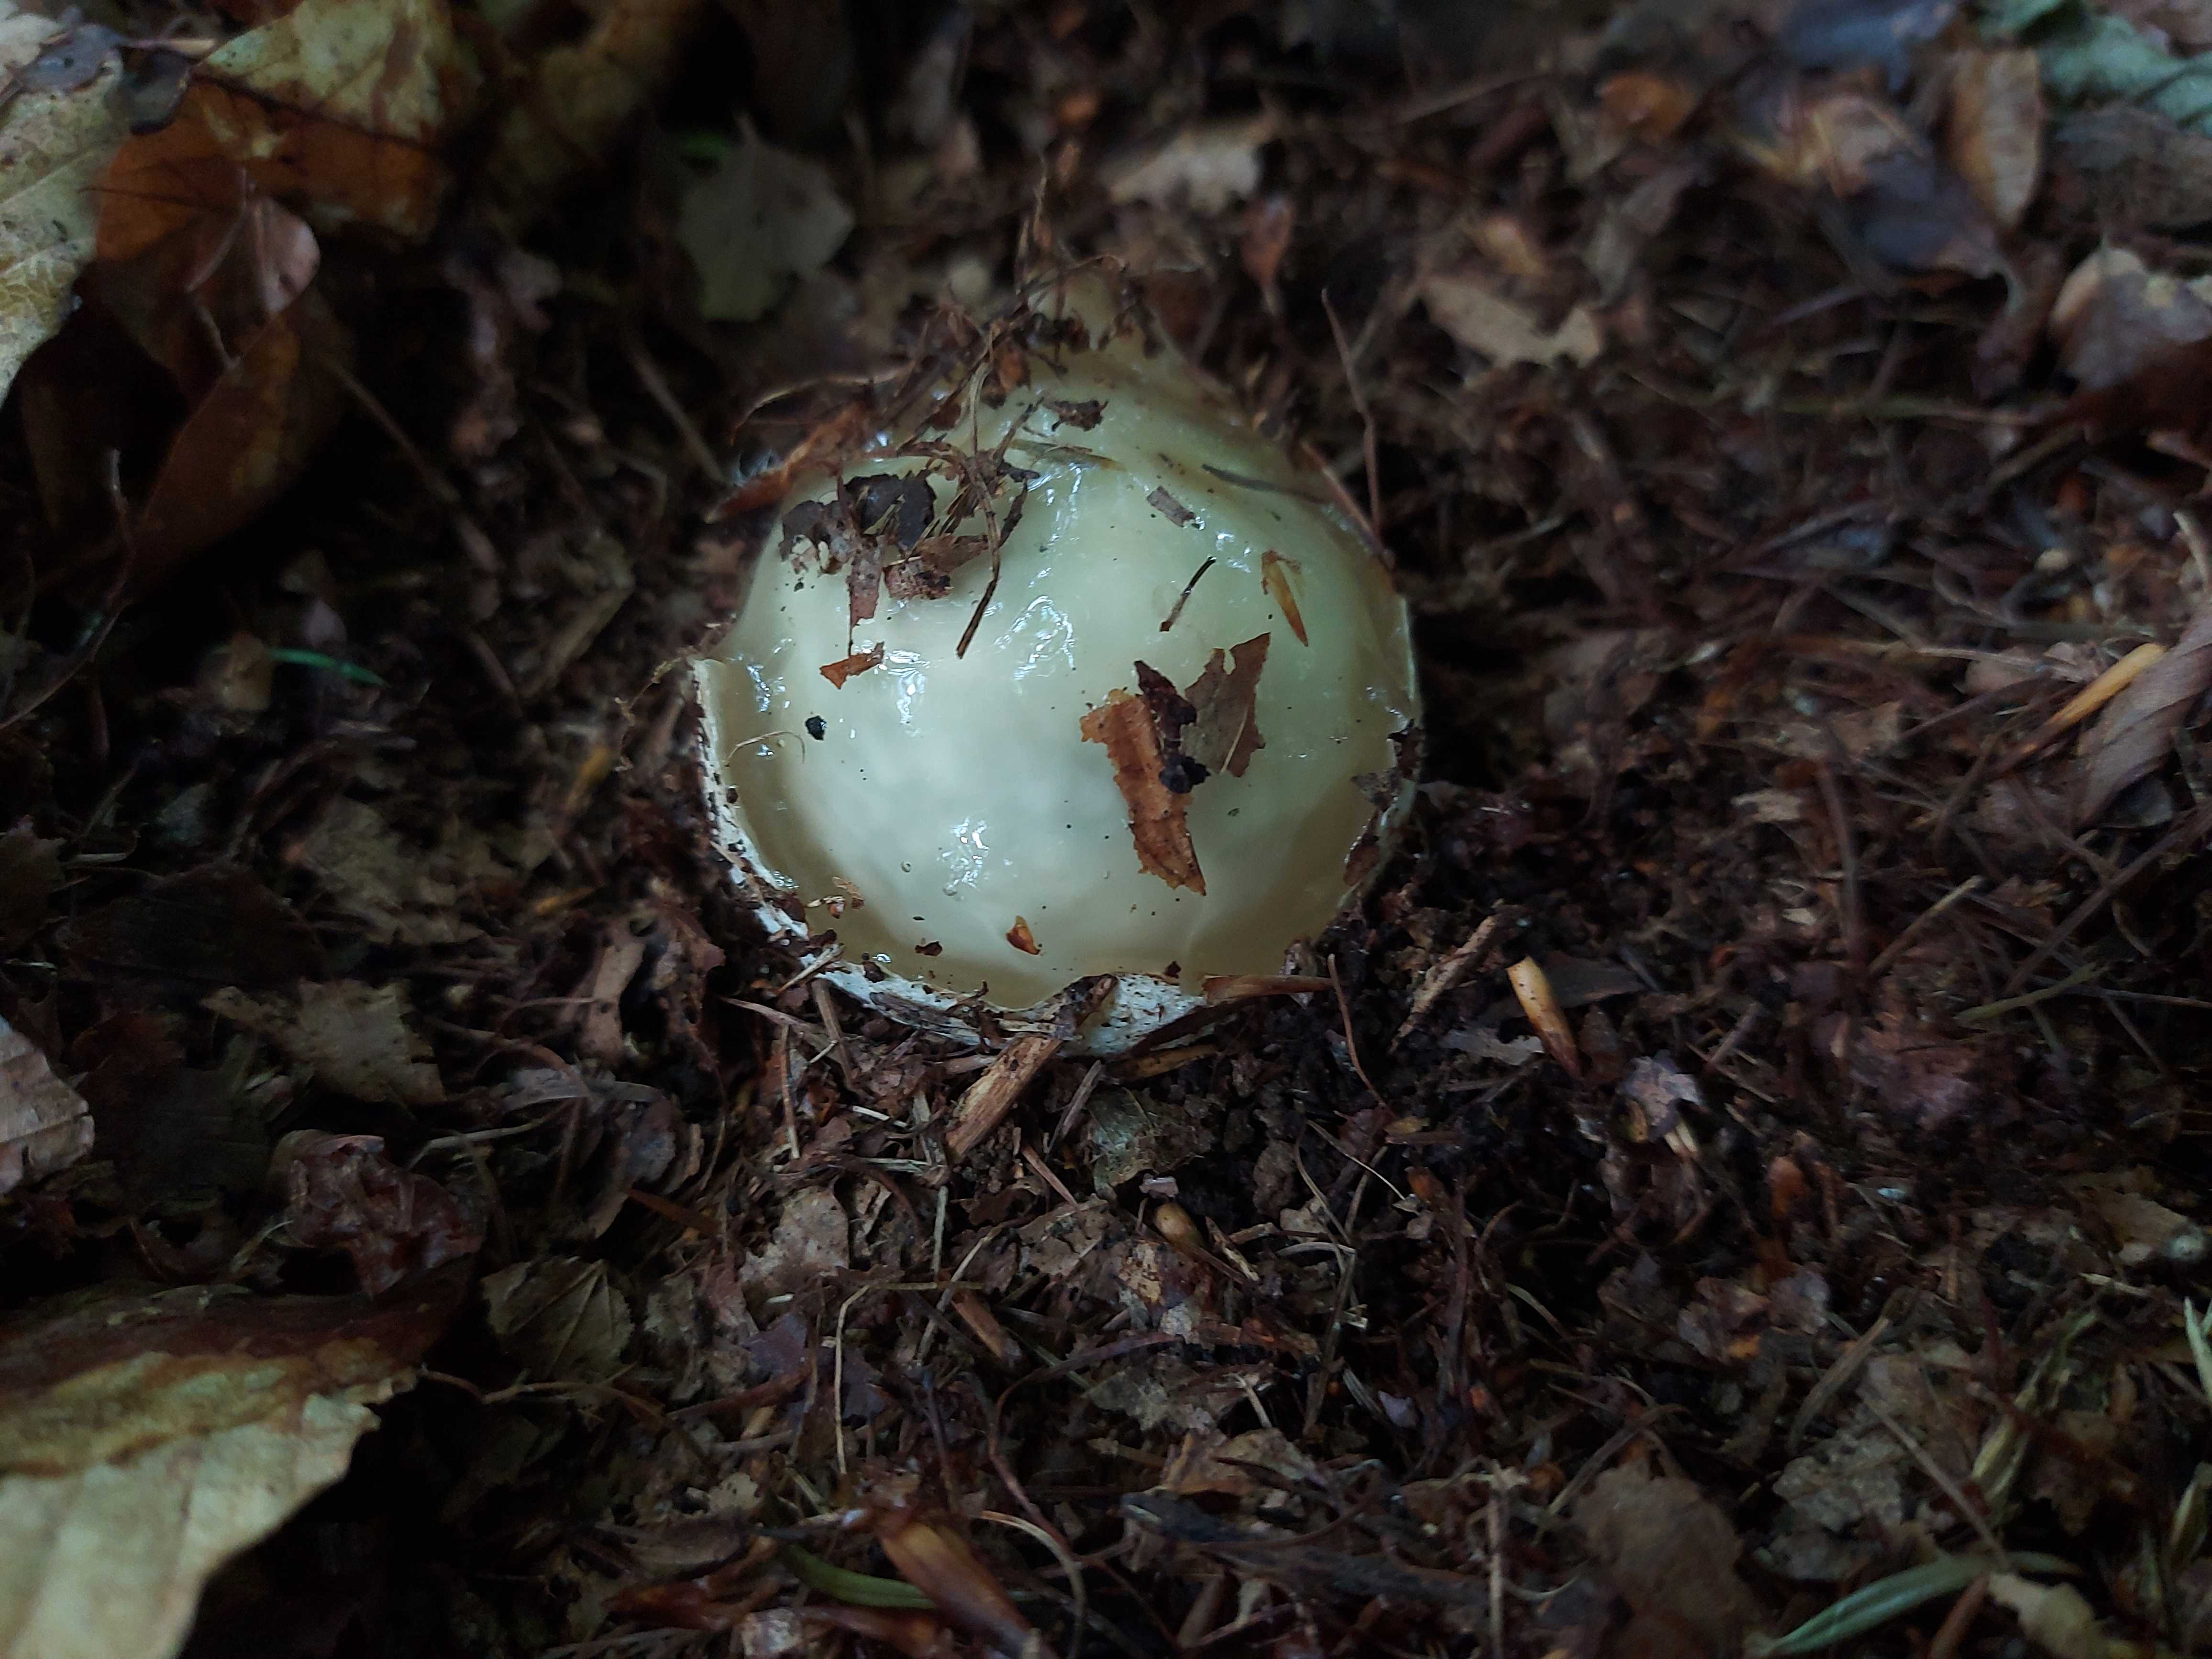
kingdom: Fungi
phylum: Basidiomycota
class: Agaricomycetes
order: Phallales
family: Phallaceae
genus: Phallus
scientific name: Phallus impudicus
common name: almindelig stinksvamp
